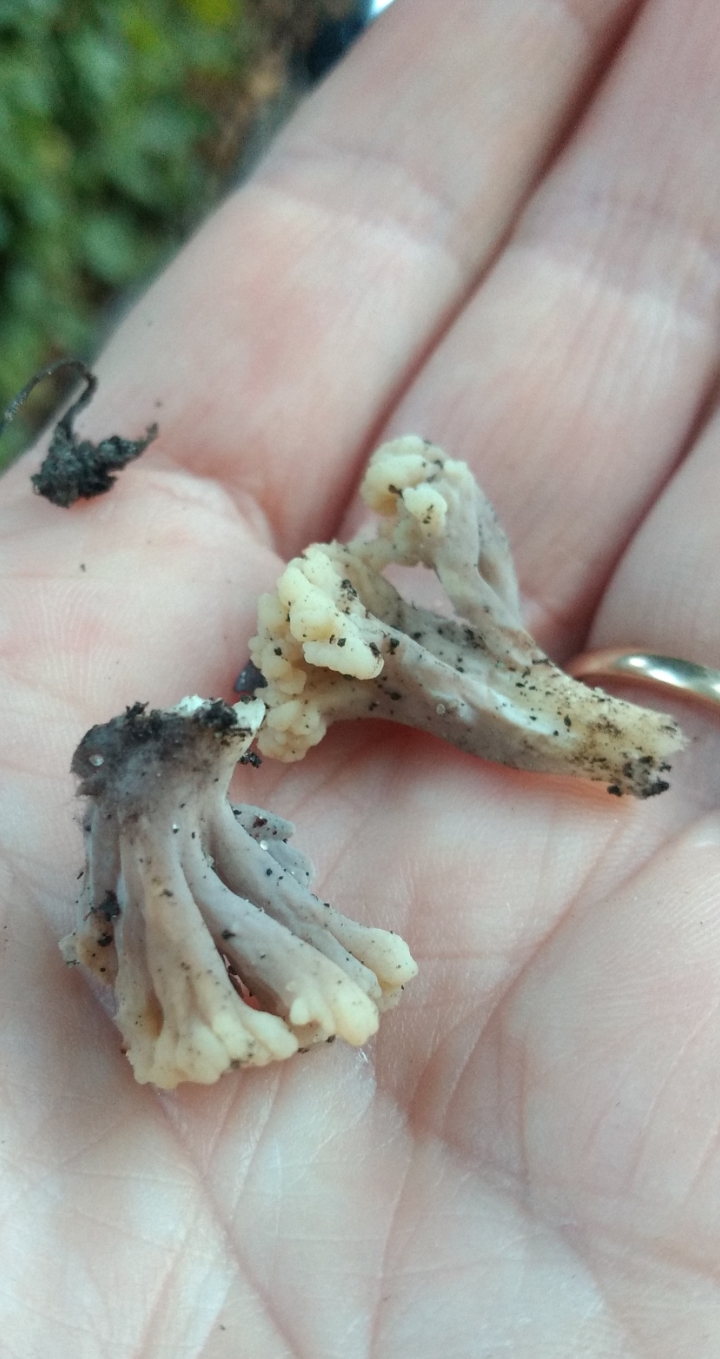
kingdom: Fungi
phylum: Basidiomycota
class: Agaricomycetes
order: Cantharellales
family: Hydnaceae
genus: Clavulina
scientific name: Clavulina
